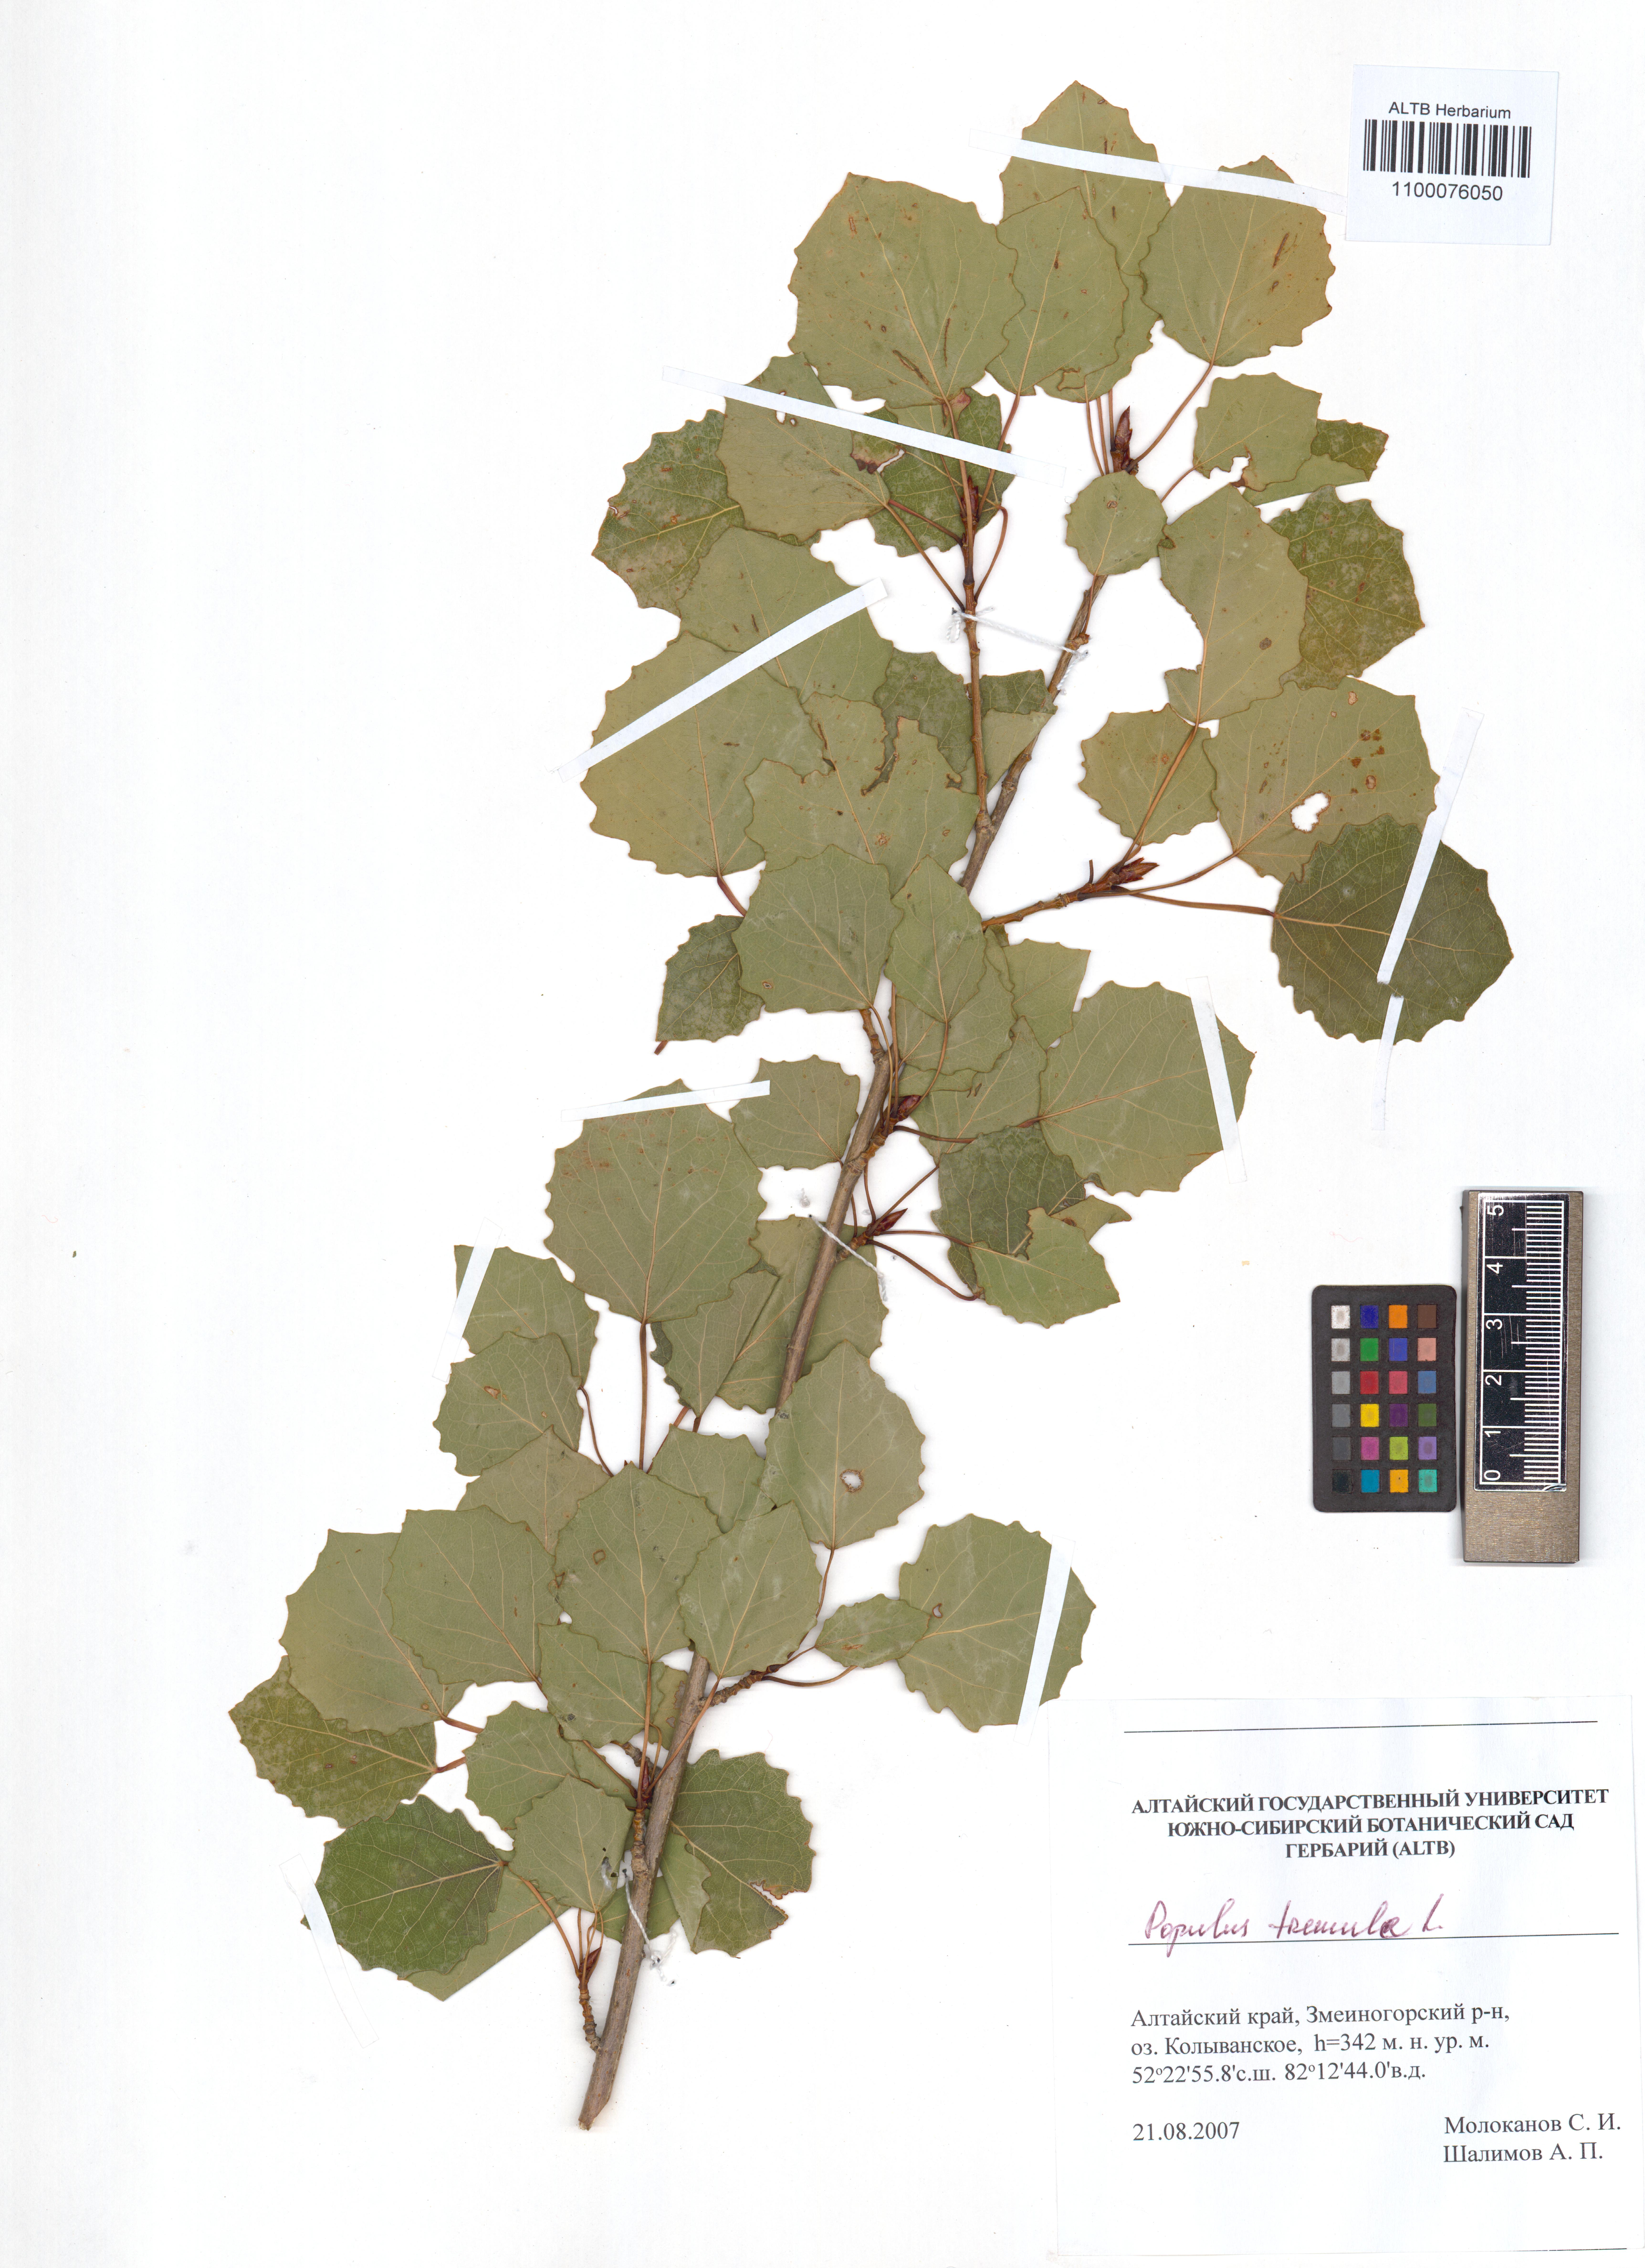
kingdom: Plantae
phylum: Tracheophyta
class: Magnoliopsida
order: Malpighiales
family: Salicaceae
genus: Populus
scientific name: Populus tremula
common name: European aspen
